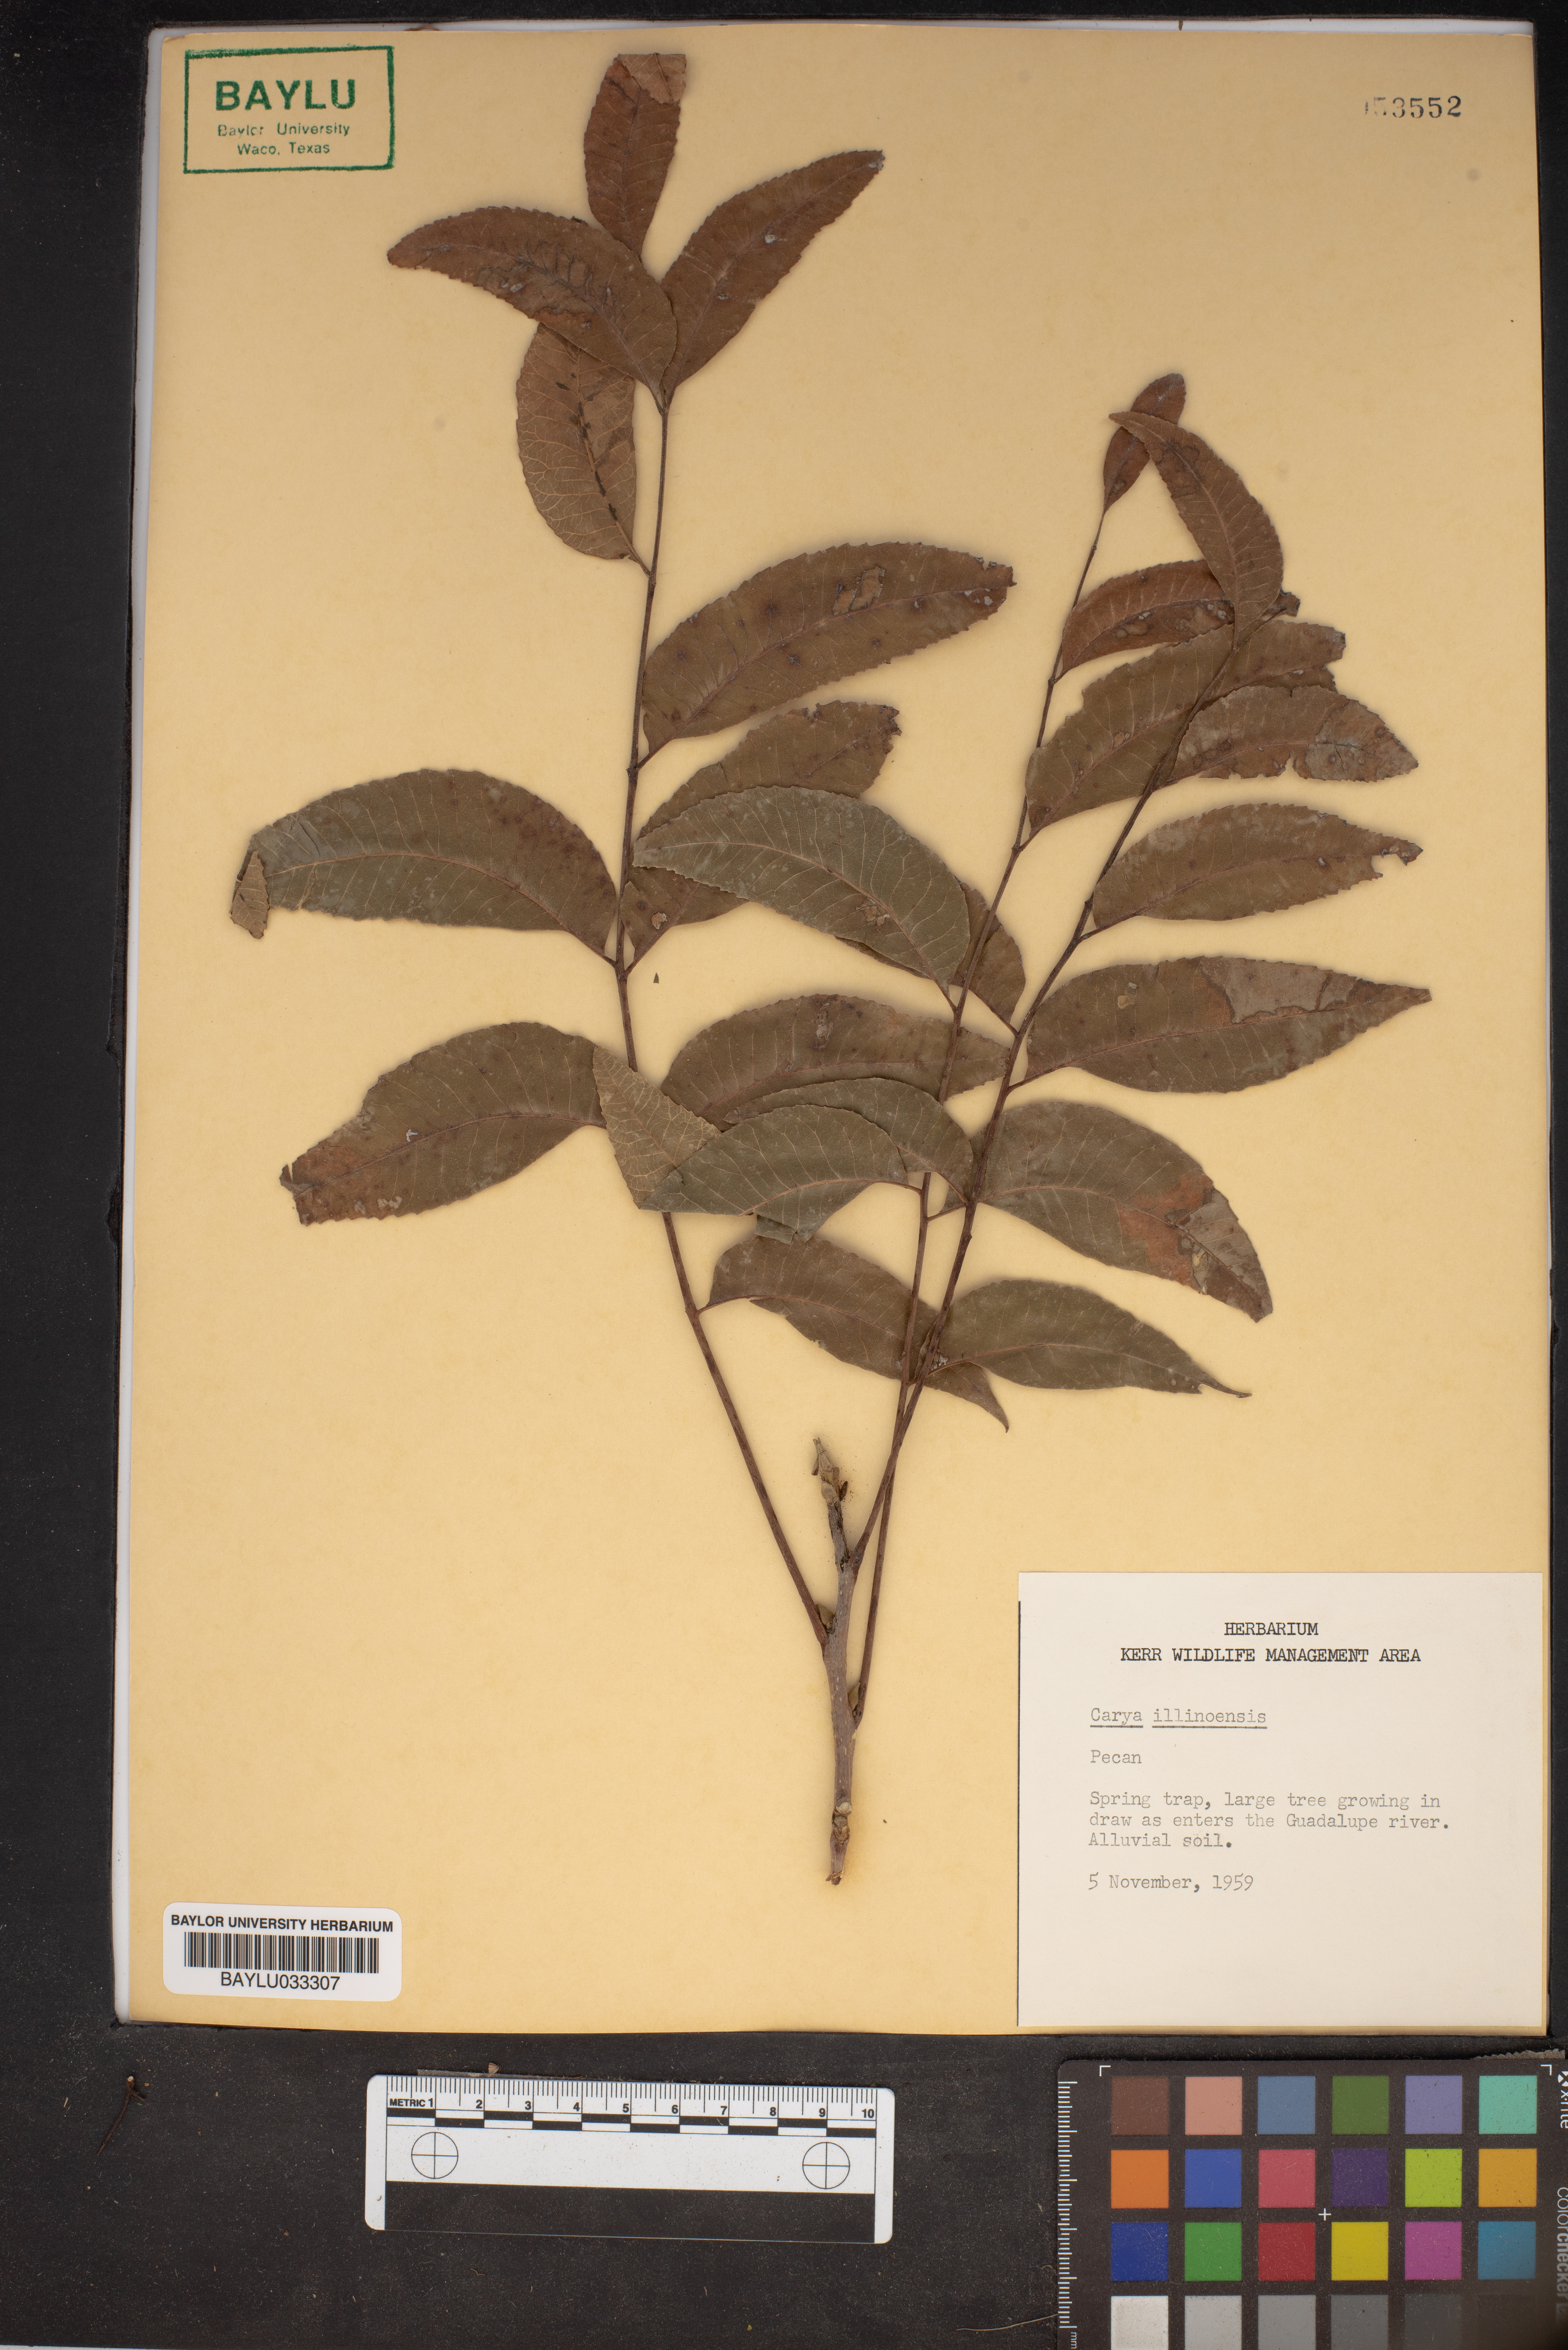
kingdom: Plantae
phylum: Tracheophyta
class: Magnoliopsida
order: Fagales
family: Juglandaceae
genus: Carya
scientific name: Carya
